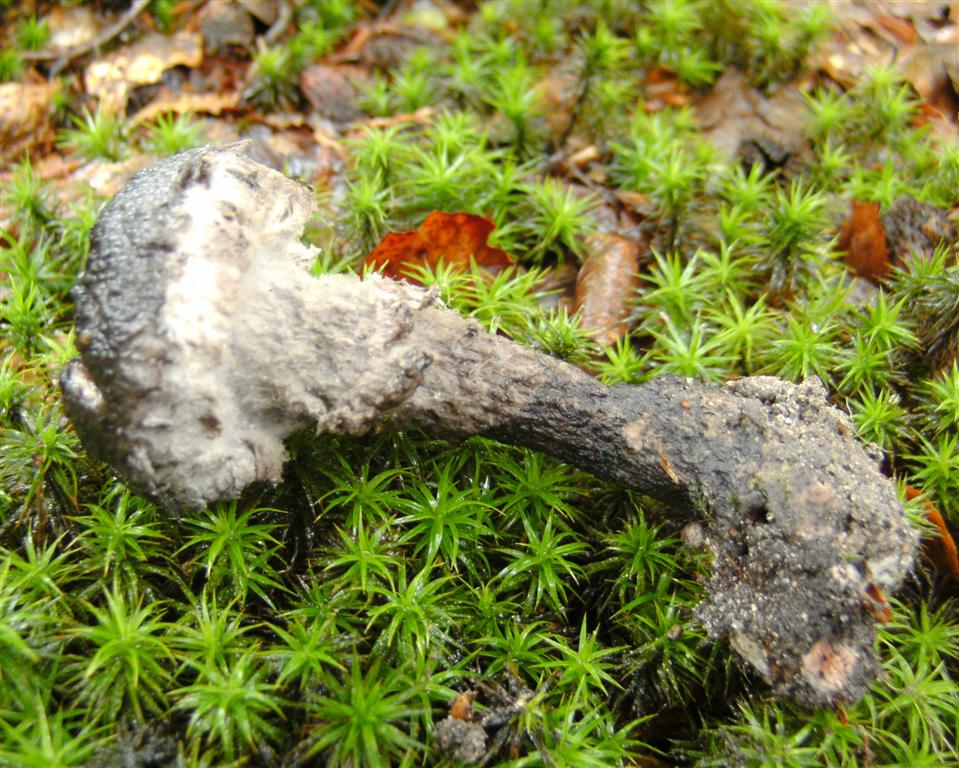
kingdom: Fungi
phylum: Basidiomycota
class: Agaricomycetes
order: Boletales
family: Boletaceae
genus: Strobilomyces
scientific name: Strobilomyces strobilaceus
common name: koglerørhat
